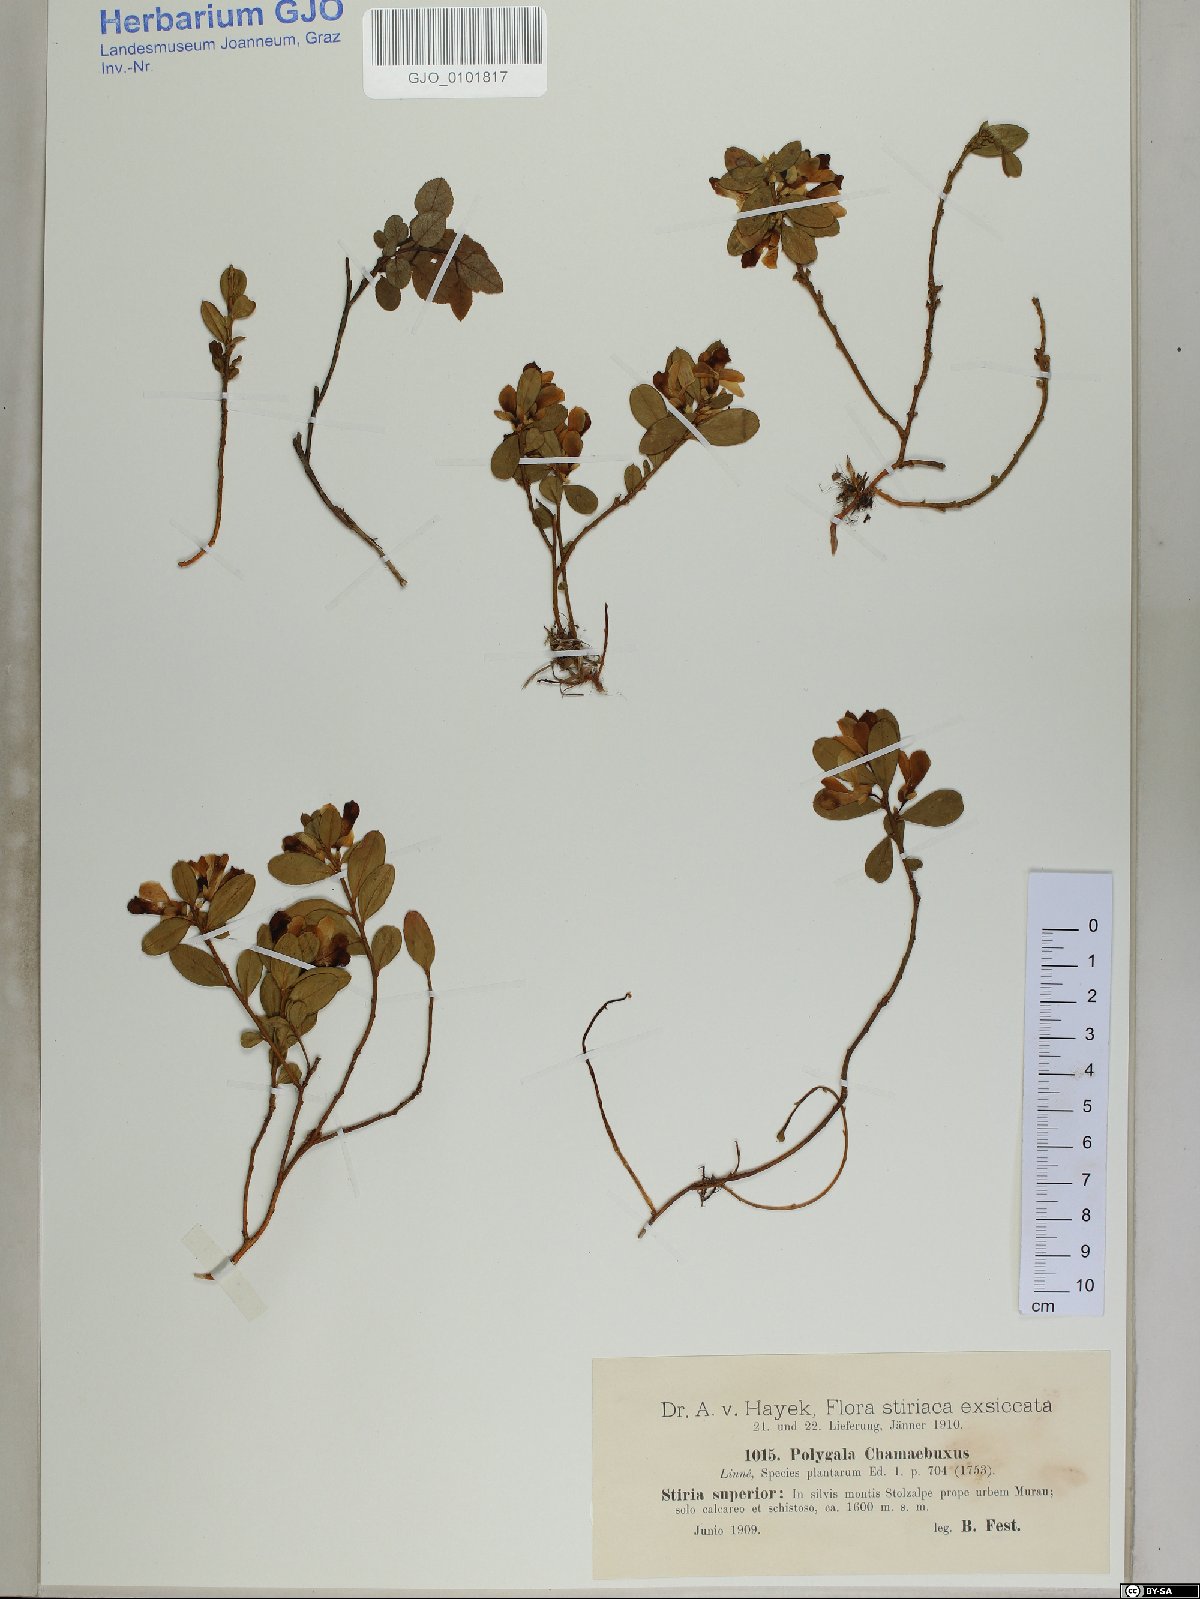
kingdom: Plantae
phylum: Tracheophyta
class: Magnoliopsida
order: Fabales
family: Polygalaceae
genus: Polygaloides
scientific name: Polygaloides chamaebuxus
